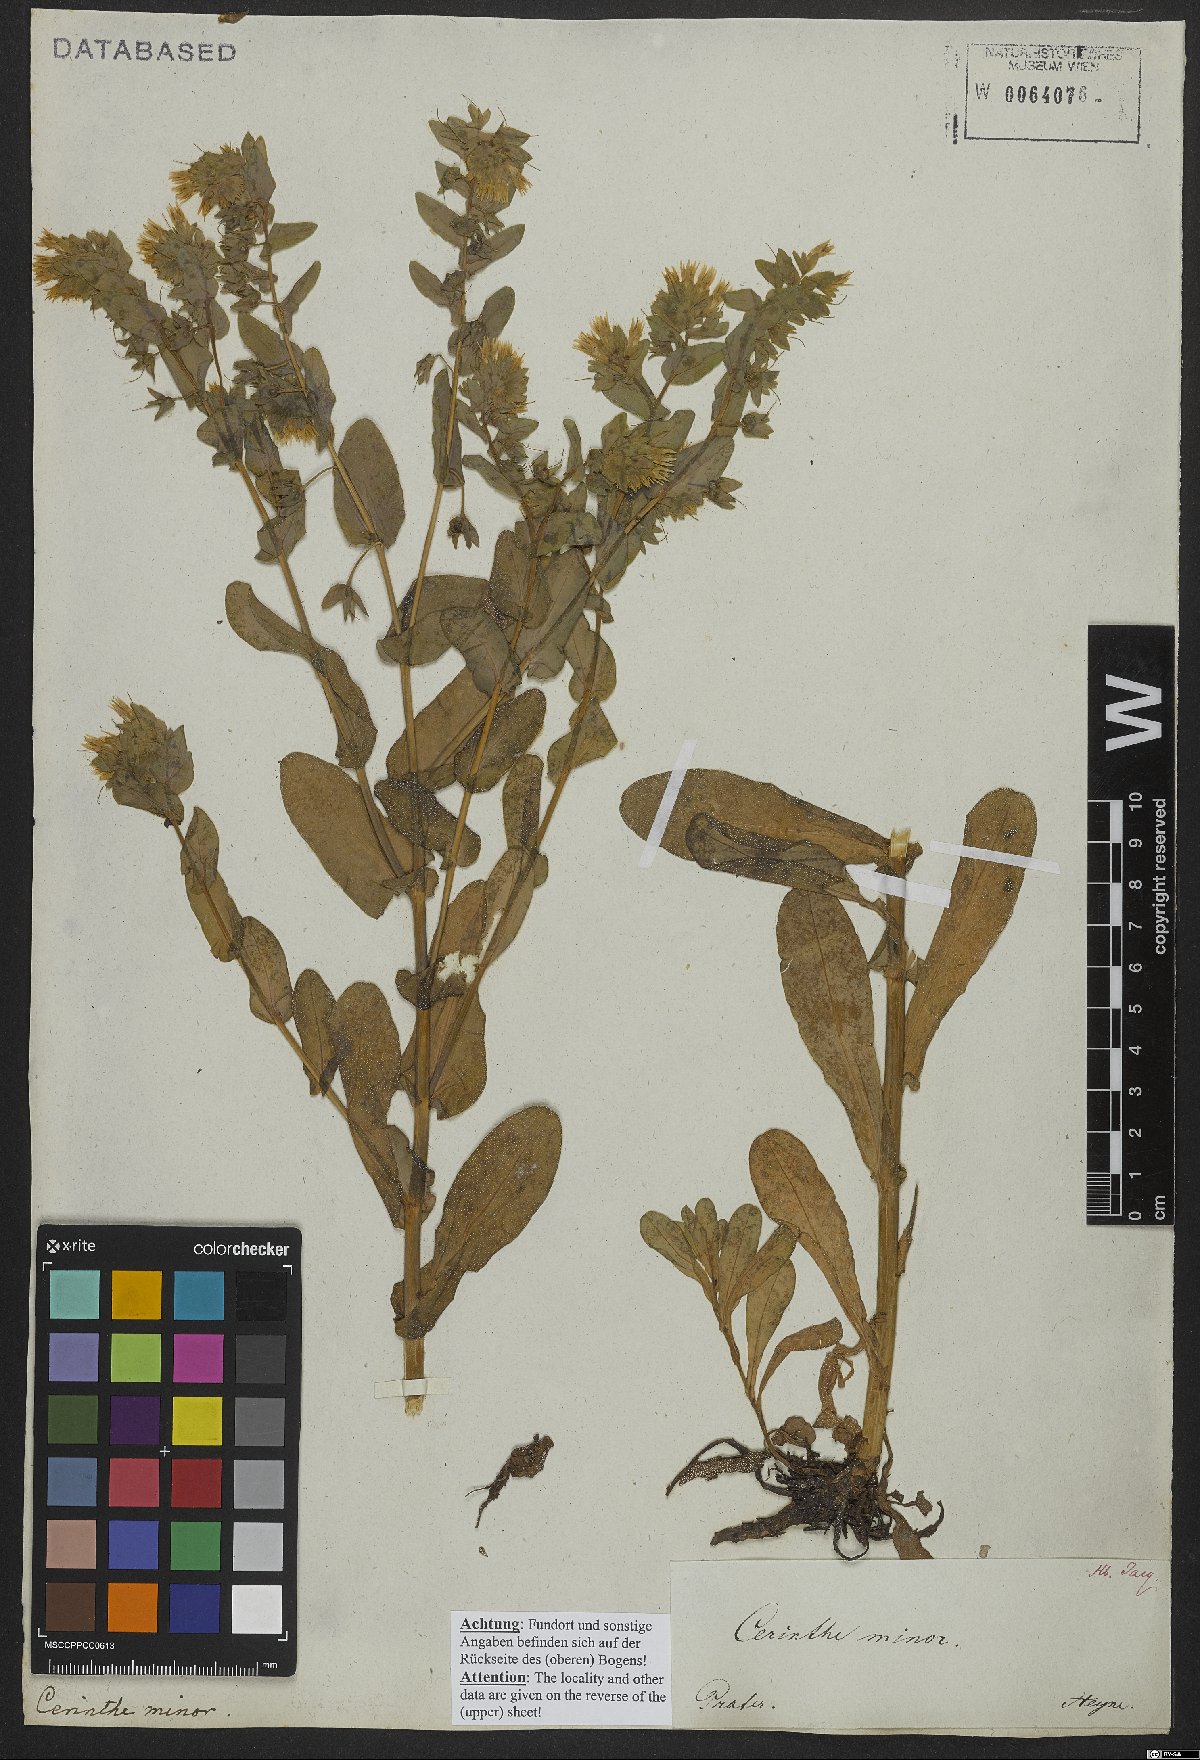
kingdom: Plantae
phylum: Tracheophyta
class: Magnoliopsida
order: Boraginales
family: Boraginaceae
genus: Cerinthe
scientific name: Cerinthe minor
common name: Lesser honeywort
